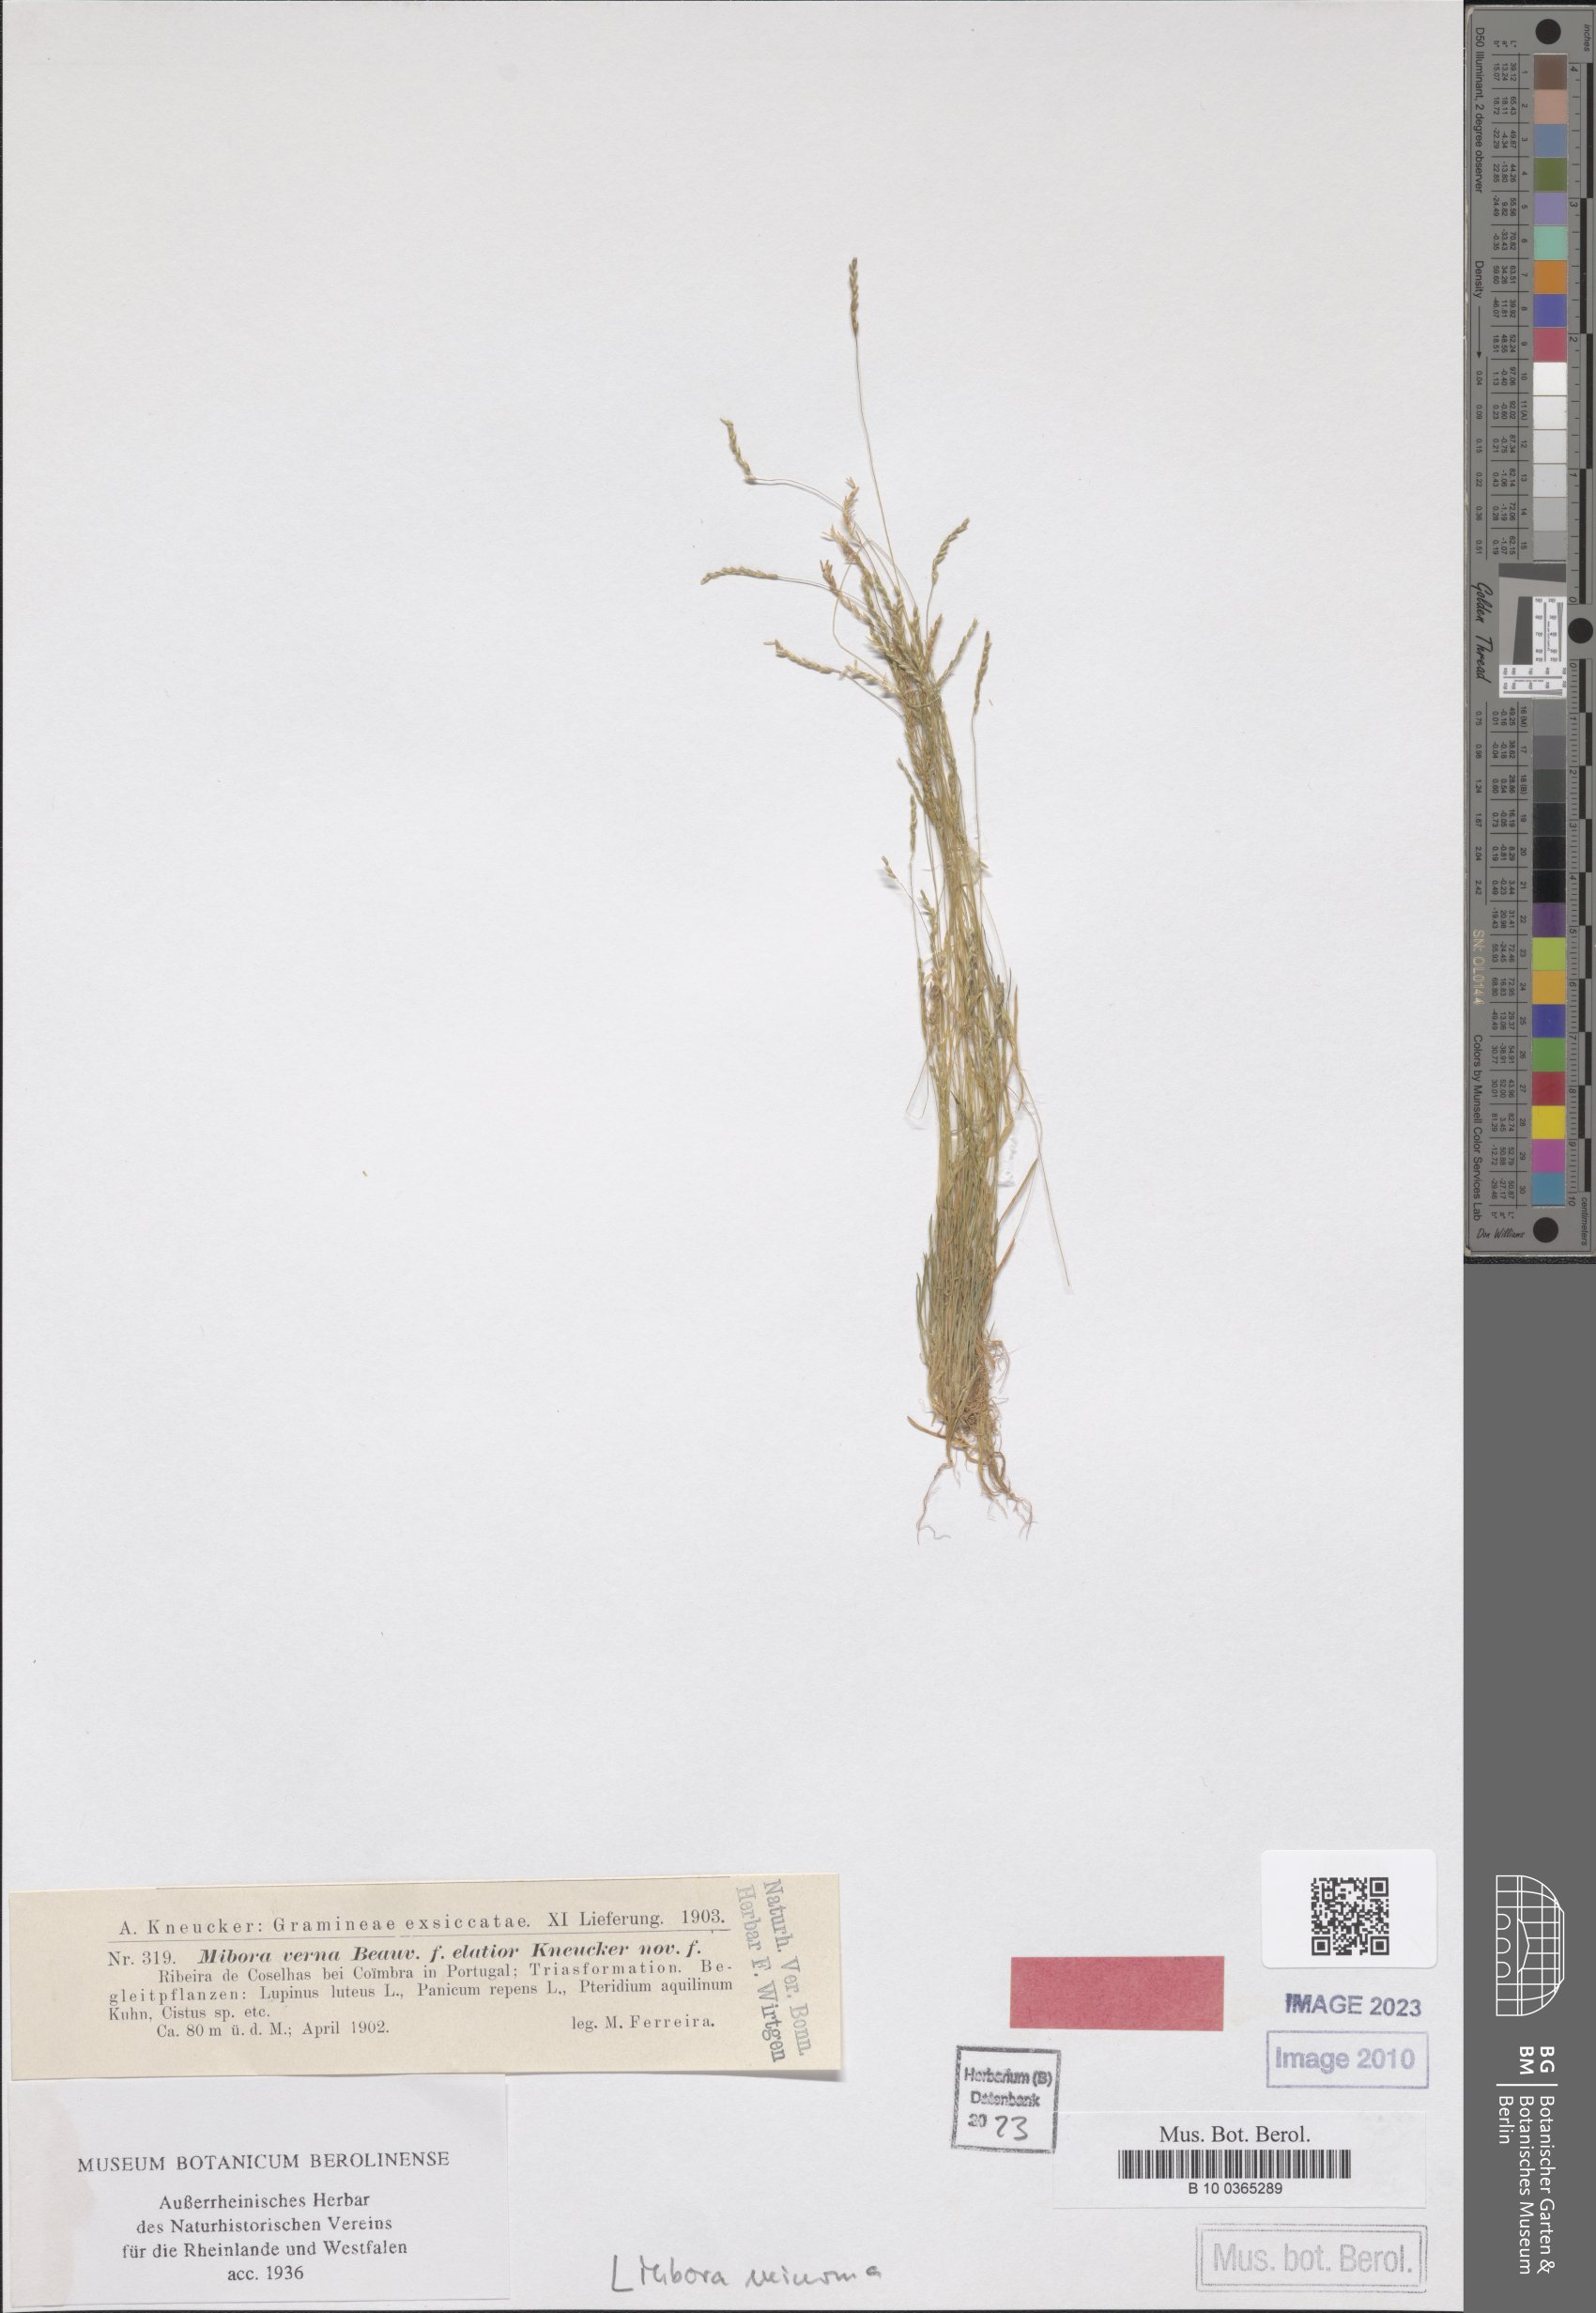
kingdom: Plantae
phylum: Tracheophyta
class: Liliopsida
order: Poales
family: Poaceae
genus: Mibora
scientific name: Mibora minima
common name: Early sand-grass
